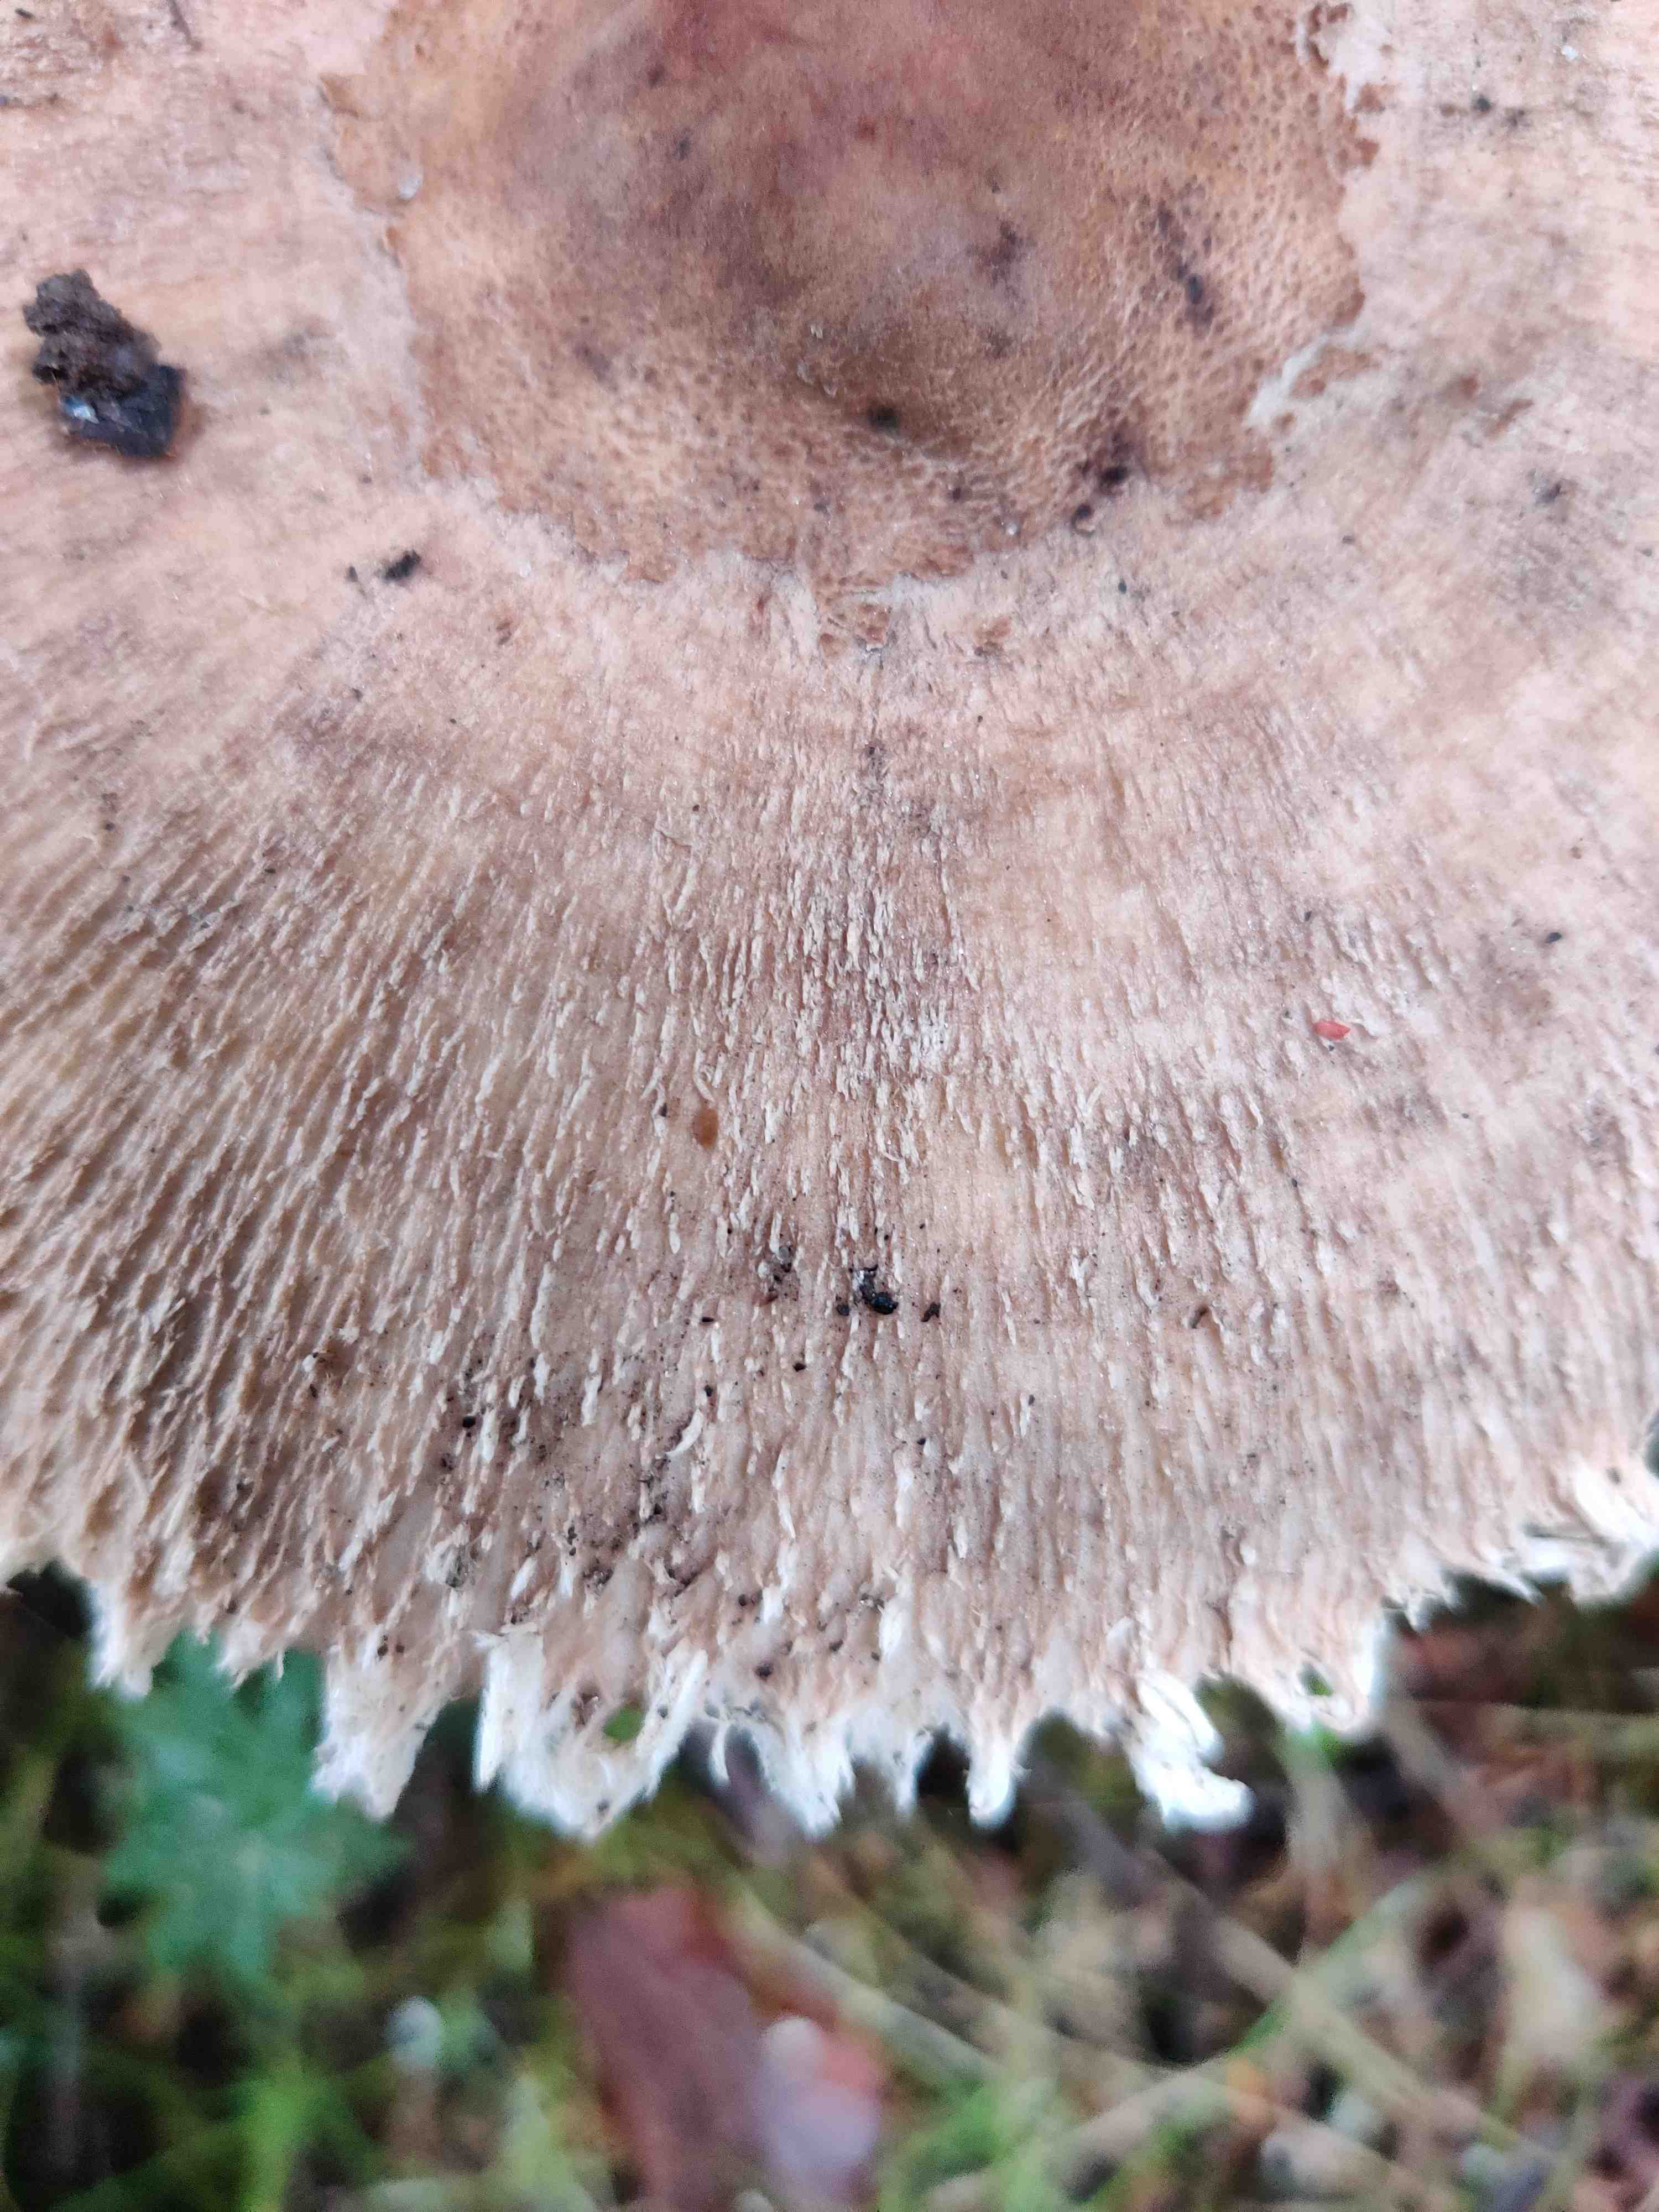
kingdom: Fungi
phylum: Basidiomycota
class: Agaricomycetes
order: Agaricales
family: Agaricaceae
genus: Macrolepiota
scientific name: Macrolepiota fuliginosa
